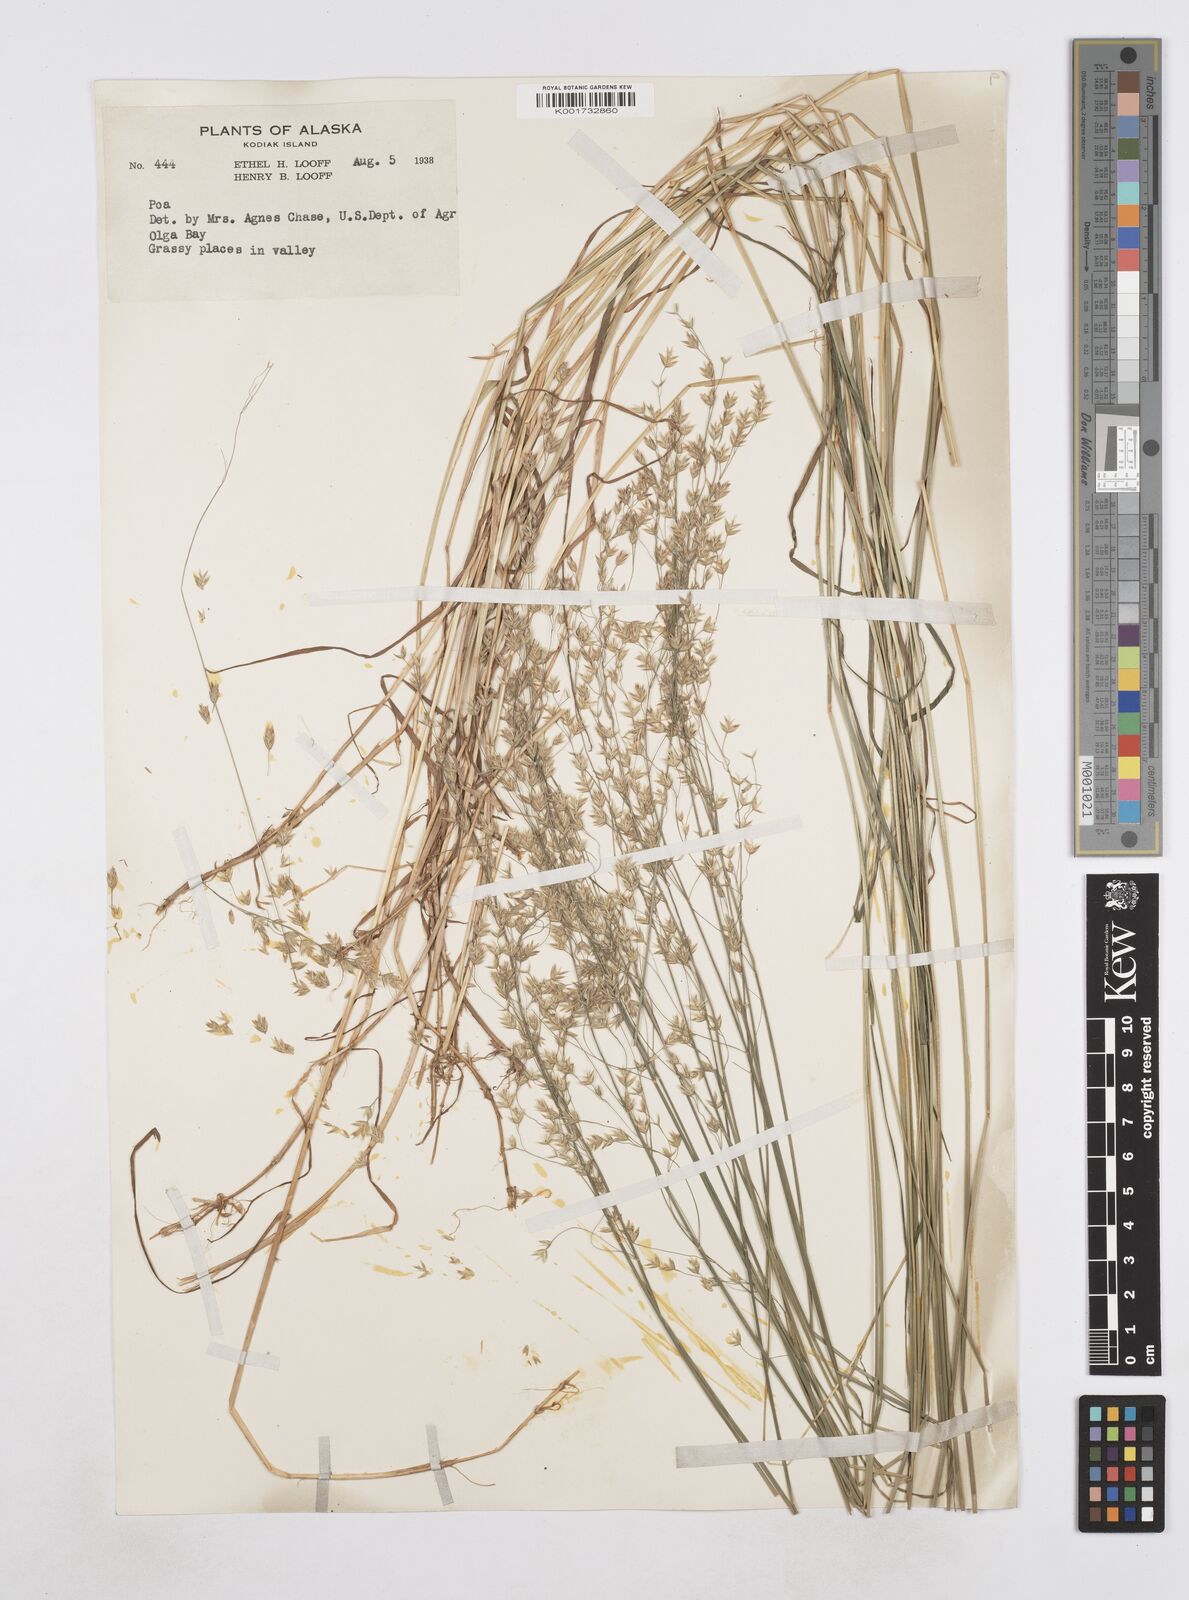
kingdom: Plantae
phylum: Tracheophyta
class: Liliopsida
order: Poales
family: Poaceae
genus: Poa
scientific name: Poa
